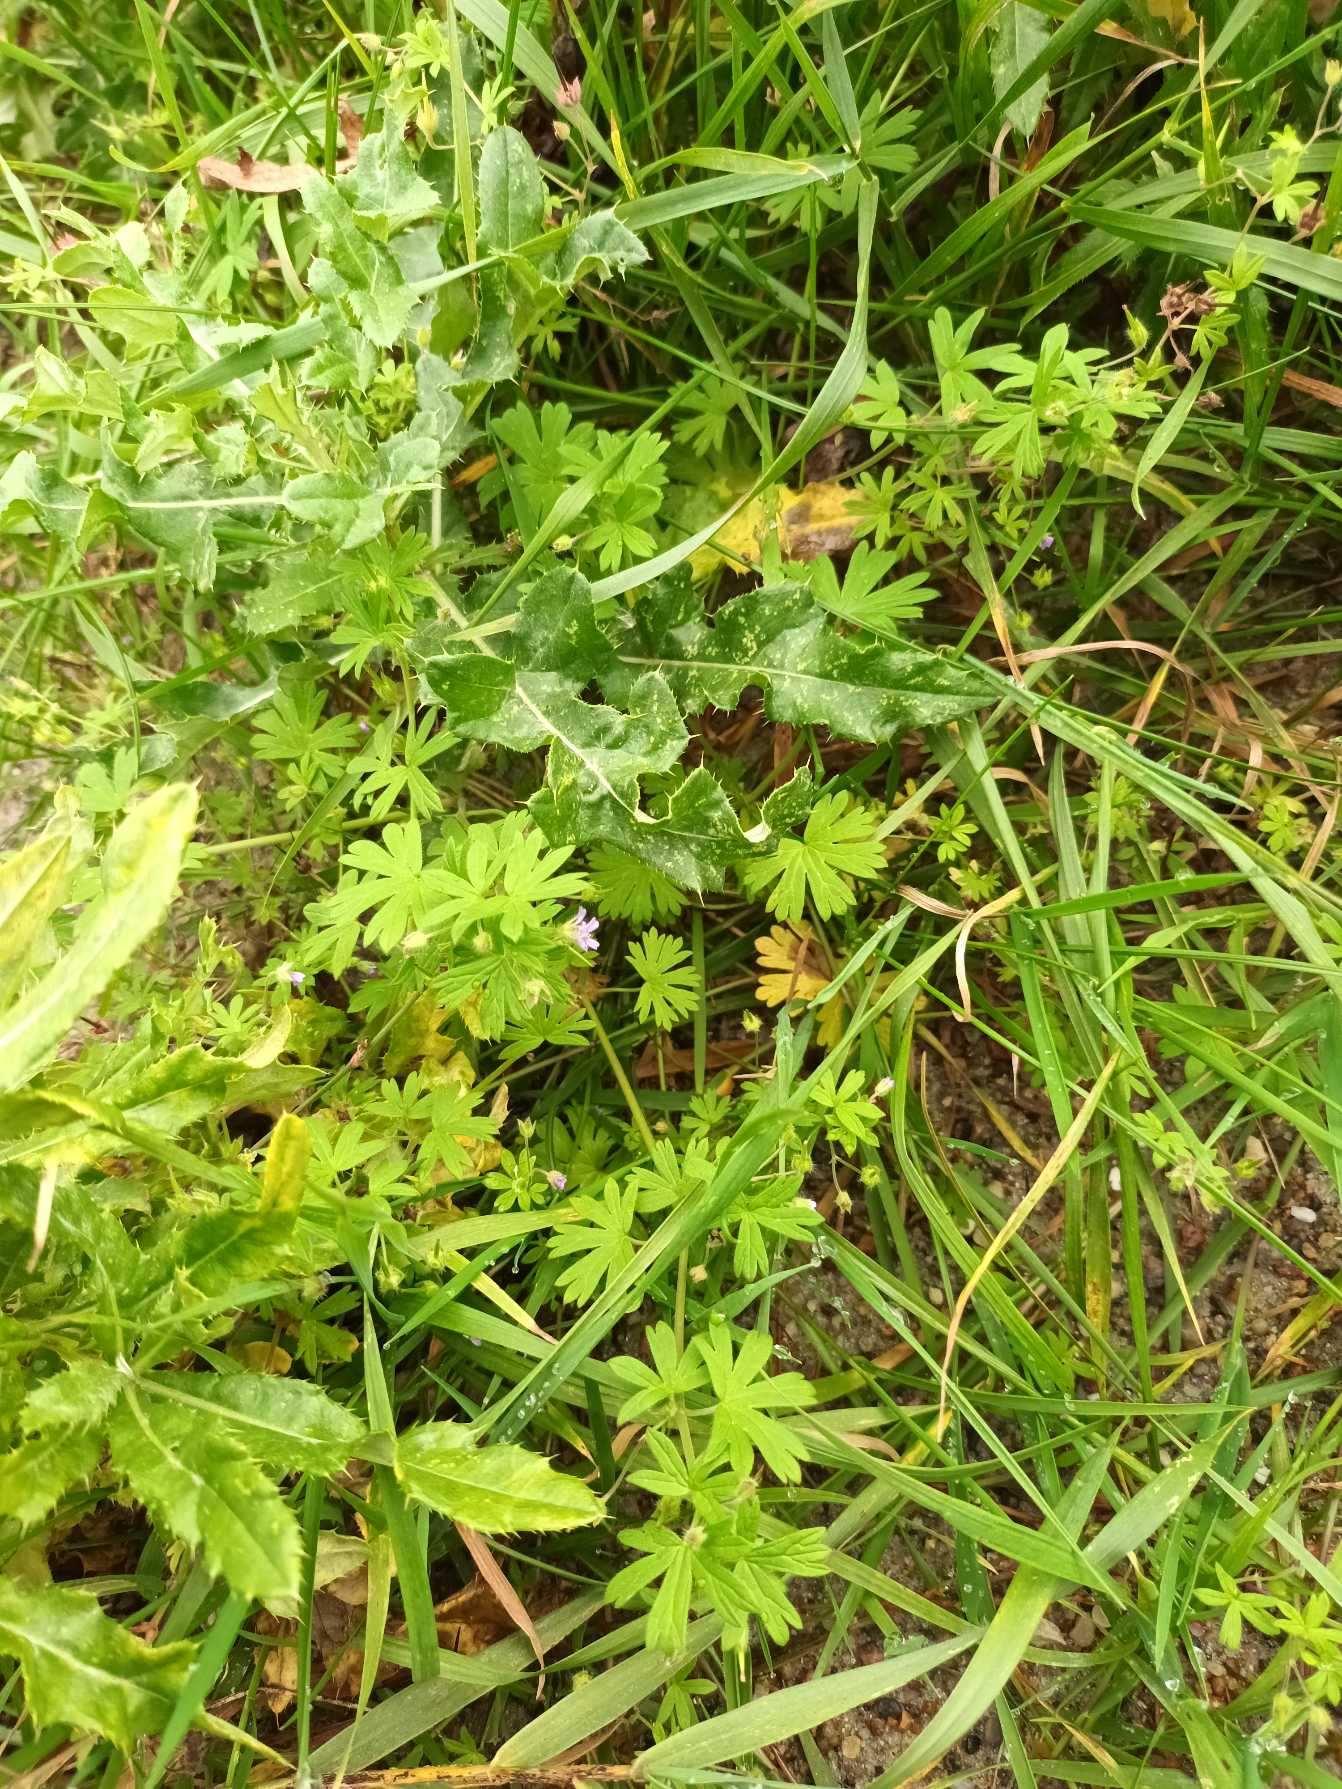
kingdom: Plantae
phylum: Tracheophyta
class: Magnoliopsida
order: Geraniales
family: Geraniaceae
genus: Geranium
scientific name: Geranium pusillum
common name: Liden storkenæb
